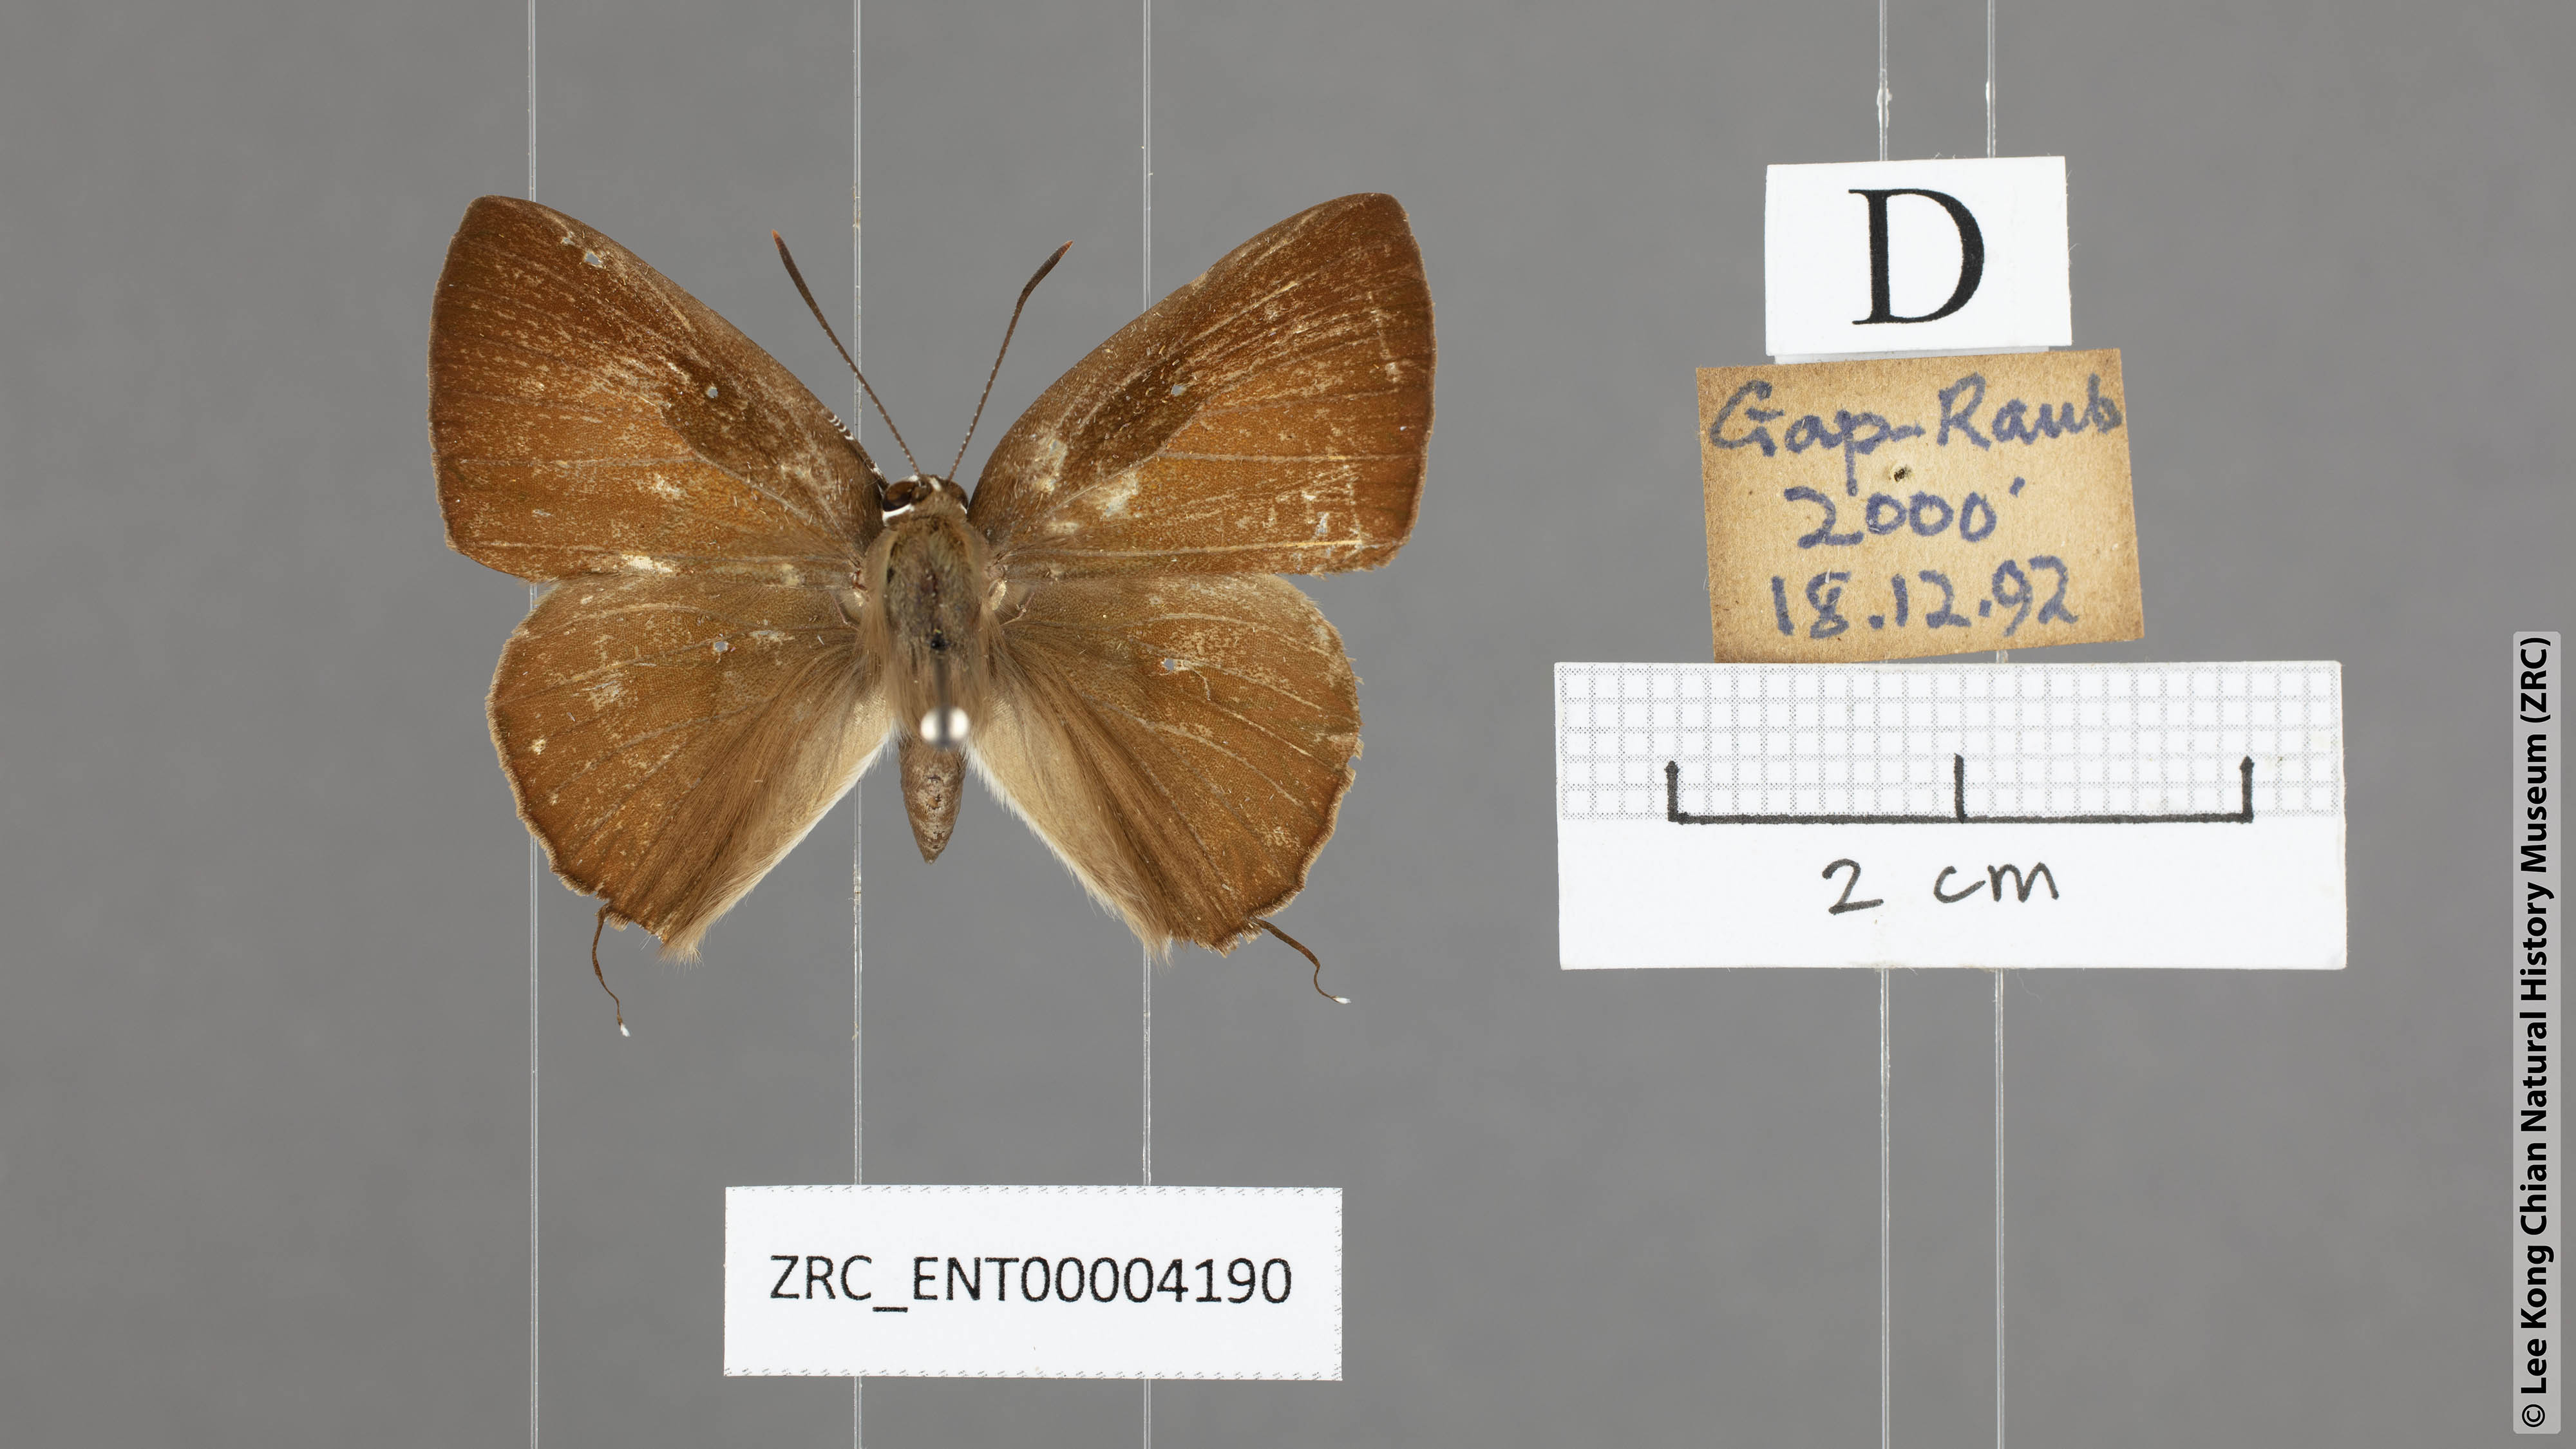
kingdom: Animalia
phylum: Arthropoda
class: Insecta
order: Lepidoptera
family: Lycaenidae
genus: Deudorix
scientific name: Deudorix epijarbas
